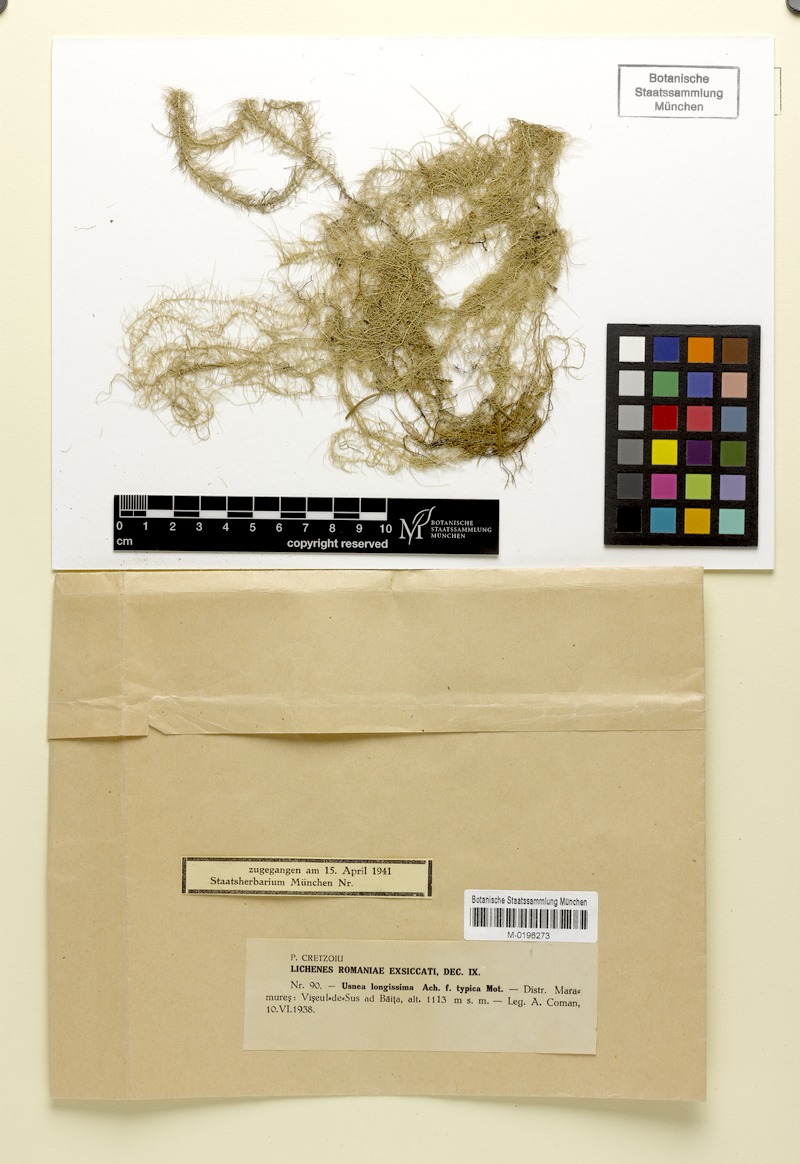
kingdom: Fungi
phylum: Ascomycota
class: Lecanoromycetes
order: Lecanorales
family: Parmeliaceae
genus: Dolichousnea
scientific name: Dolichousnea longissima
